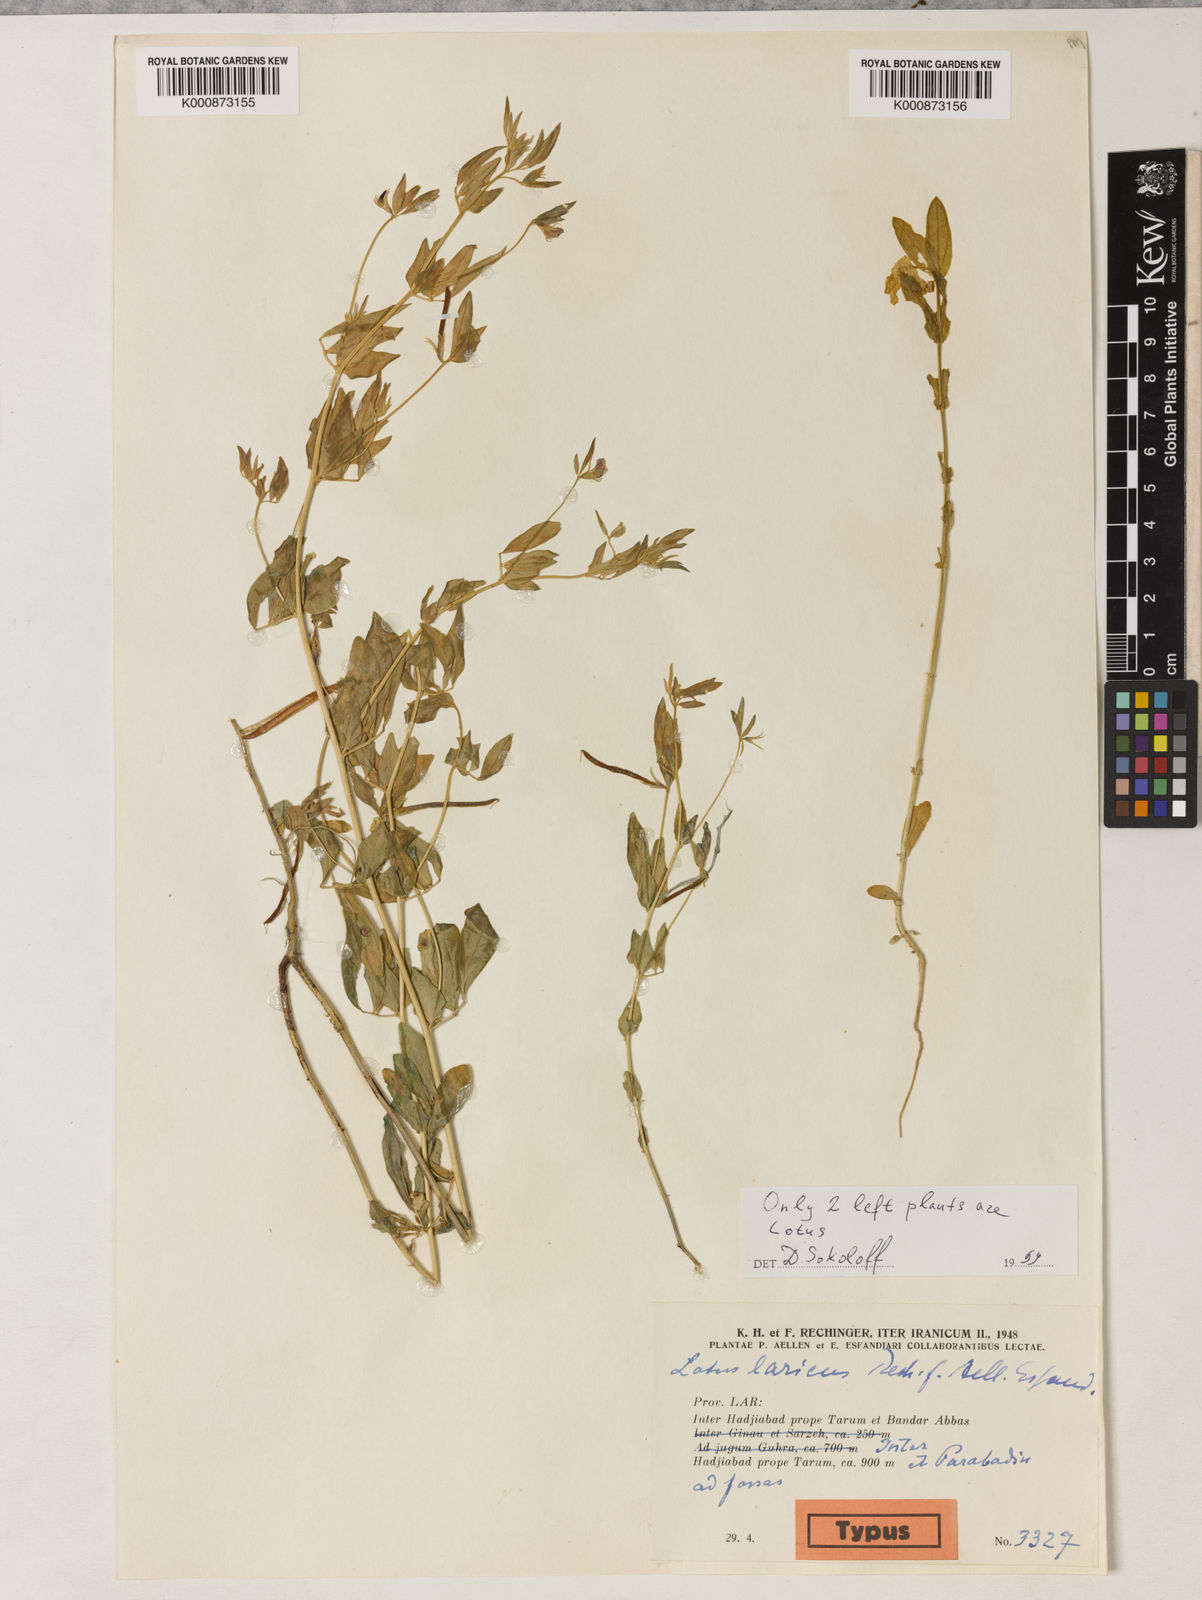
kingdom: Plantae
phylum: Tracheophyta
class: Magnoliopsida
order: Fabales
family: Fabaceae
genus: Lotus
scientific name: Lotus
